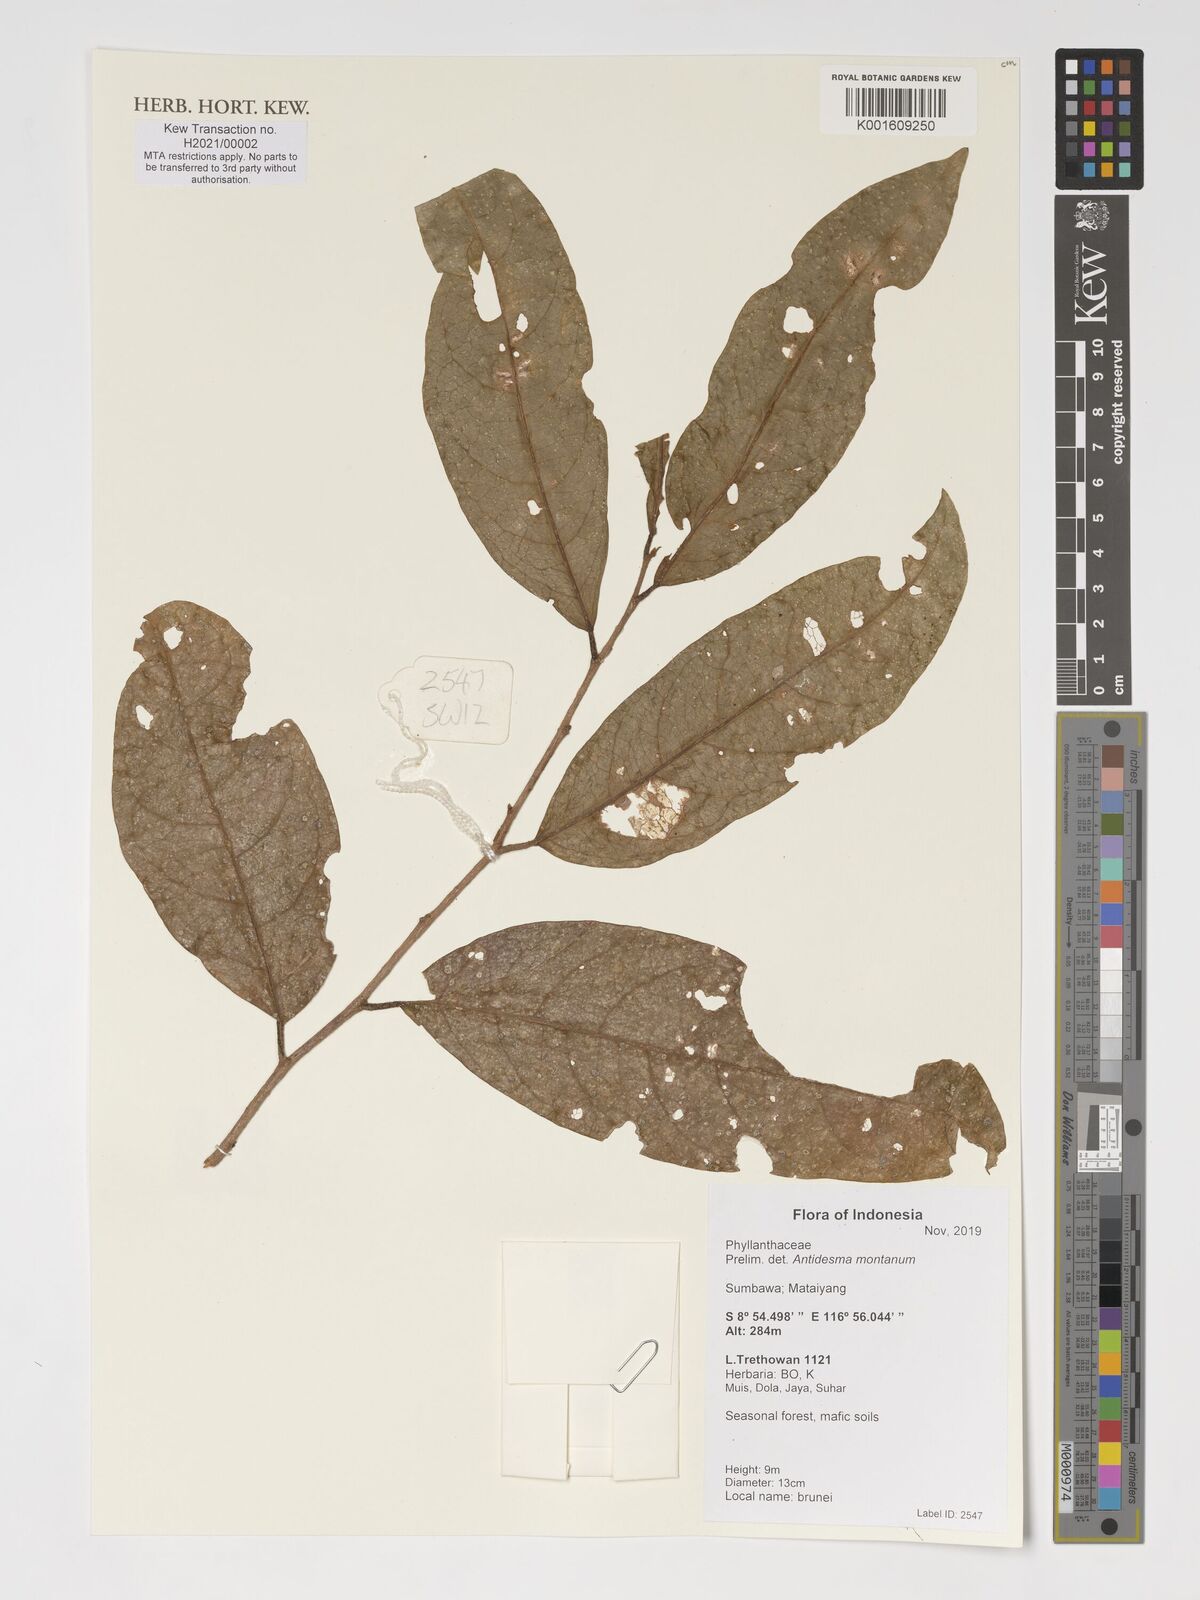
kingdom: Plantae
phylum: Tracheophyta
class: Magnoliopsida
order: Malpighiales
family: Phyllanthaceae
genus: Antidesma
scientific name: Antidesma montanum
